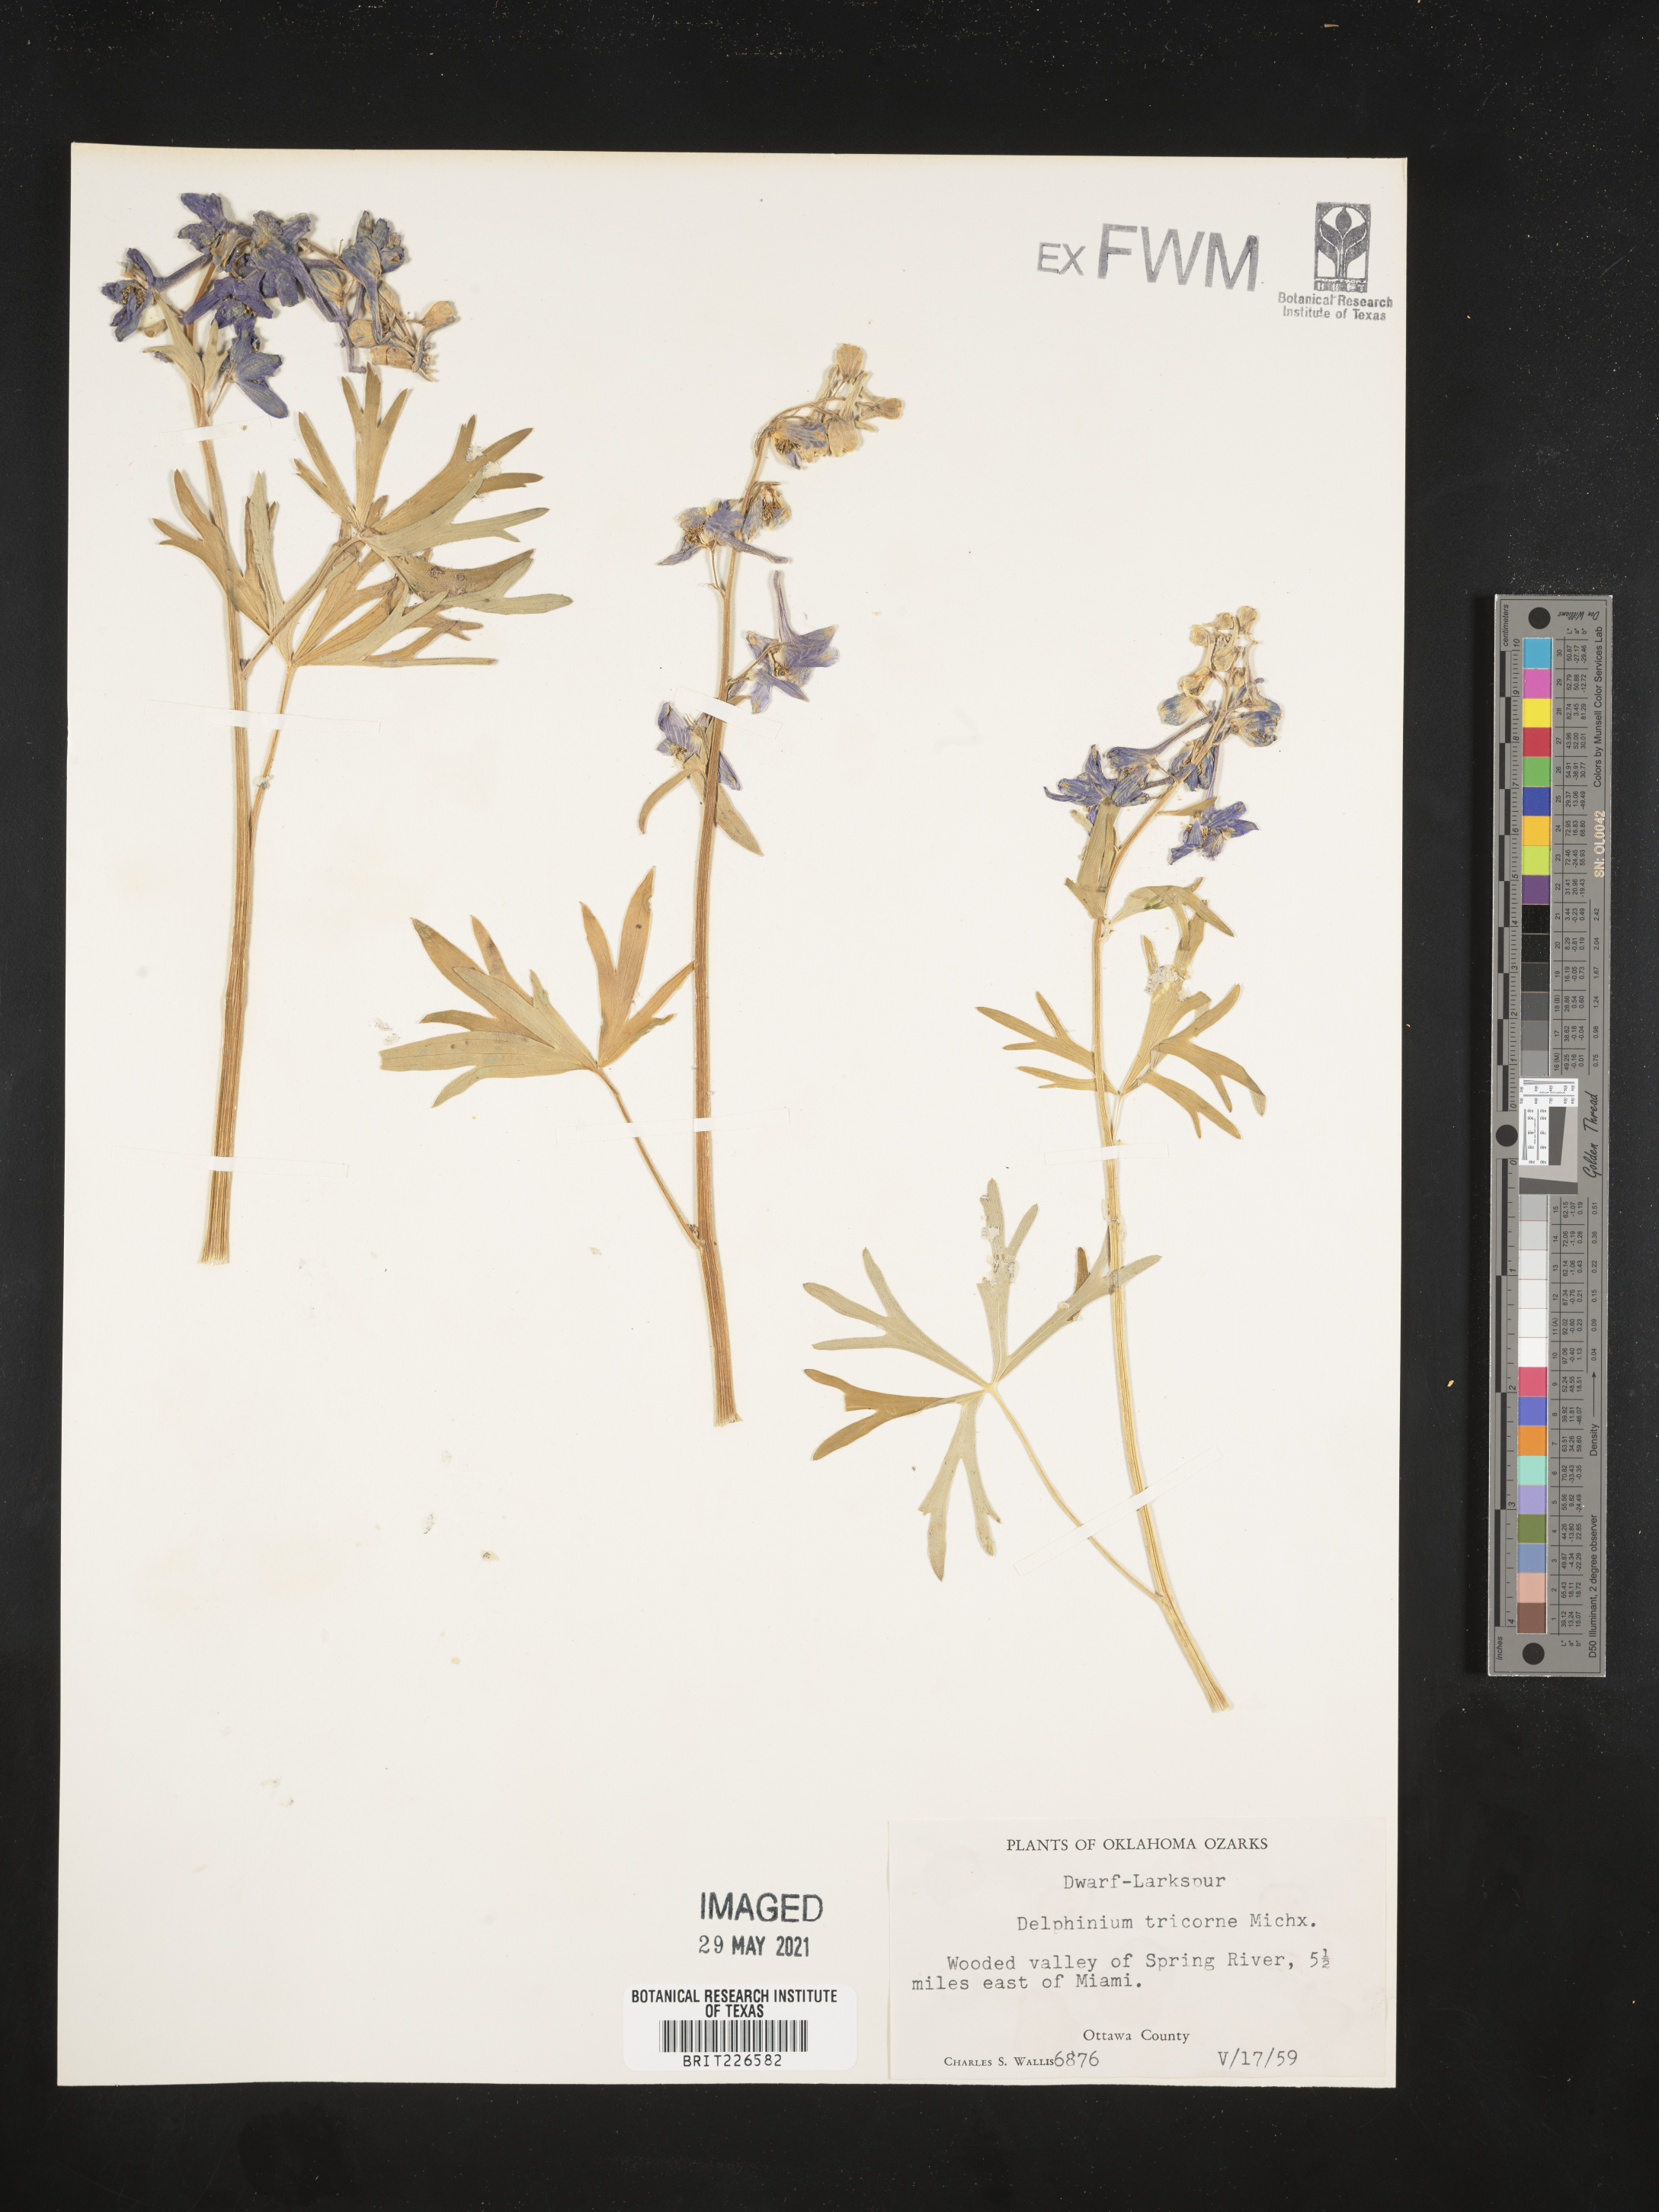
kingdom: Plantae
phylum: Tracheophyta
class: Magnoliopsida
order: Ranunculales
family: Ranunculaceae
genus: Delphinium
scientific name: Delphinium tricorne
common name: Dwarf larkspur
